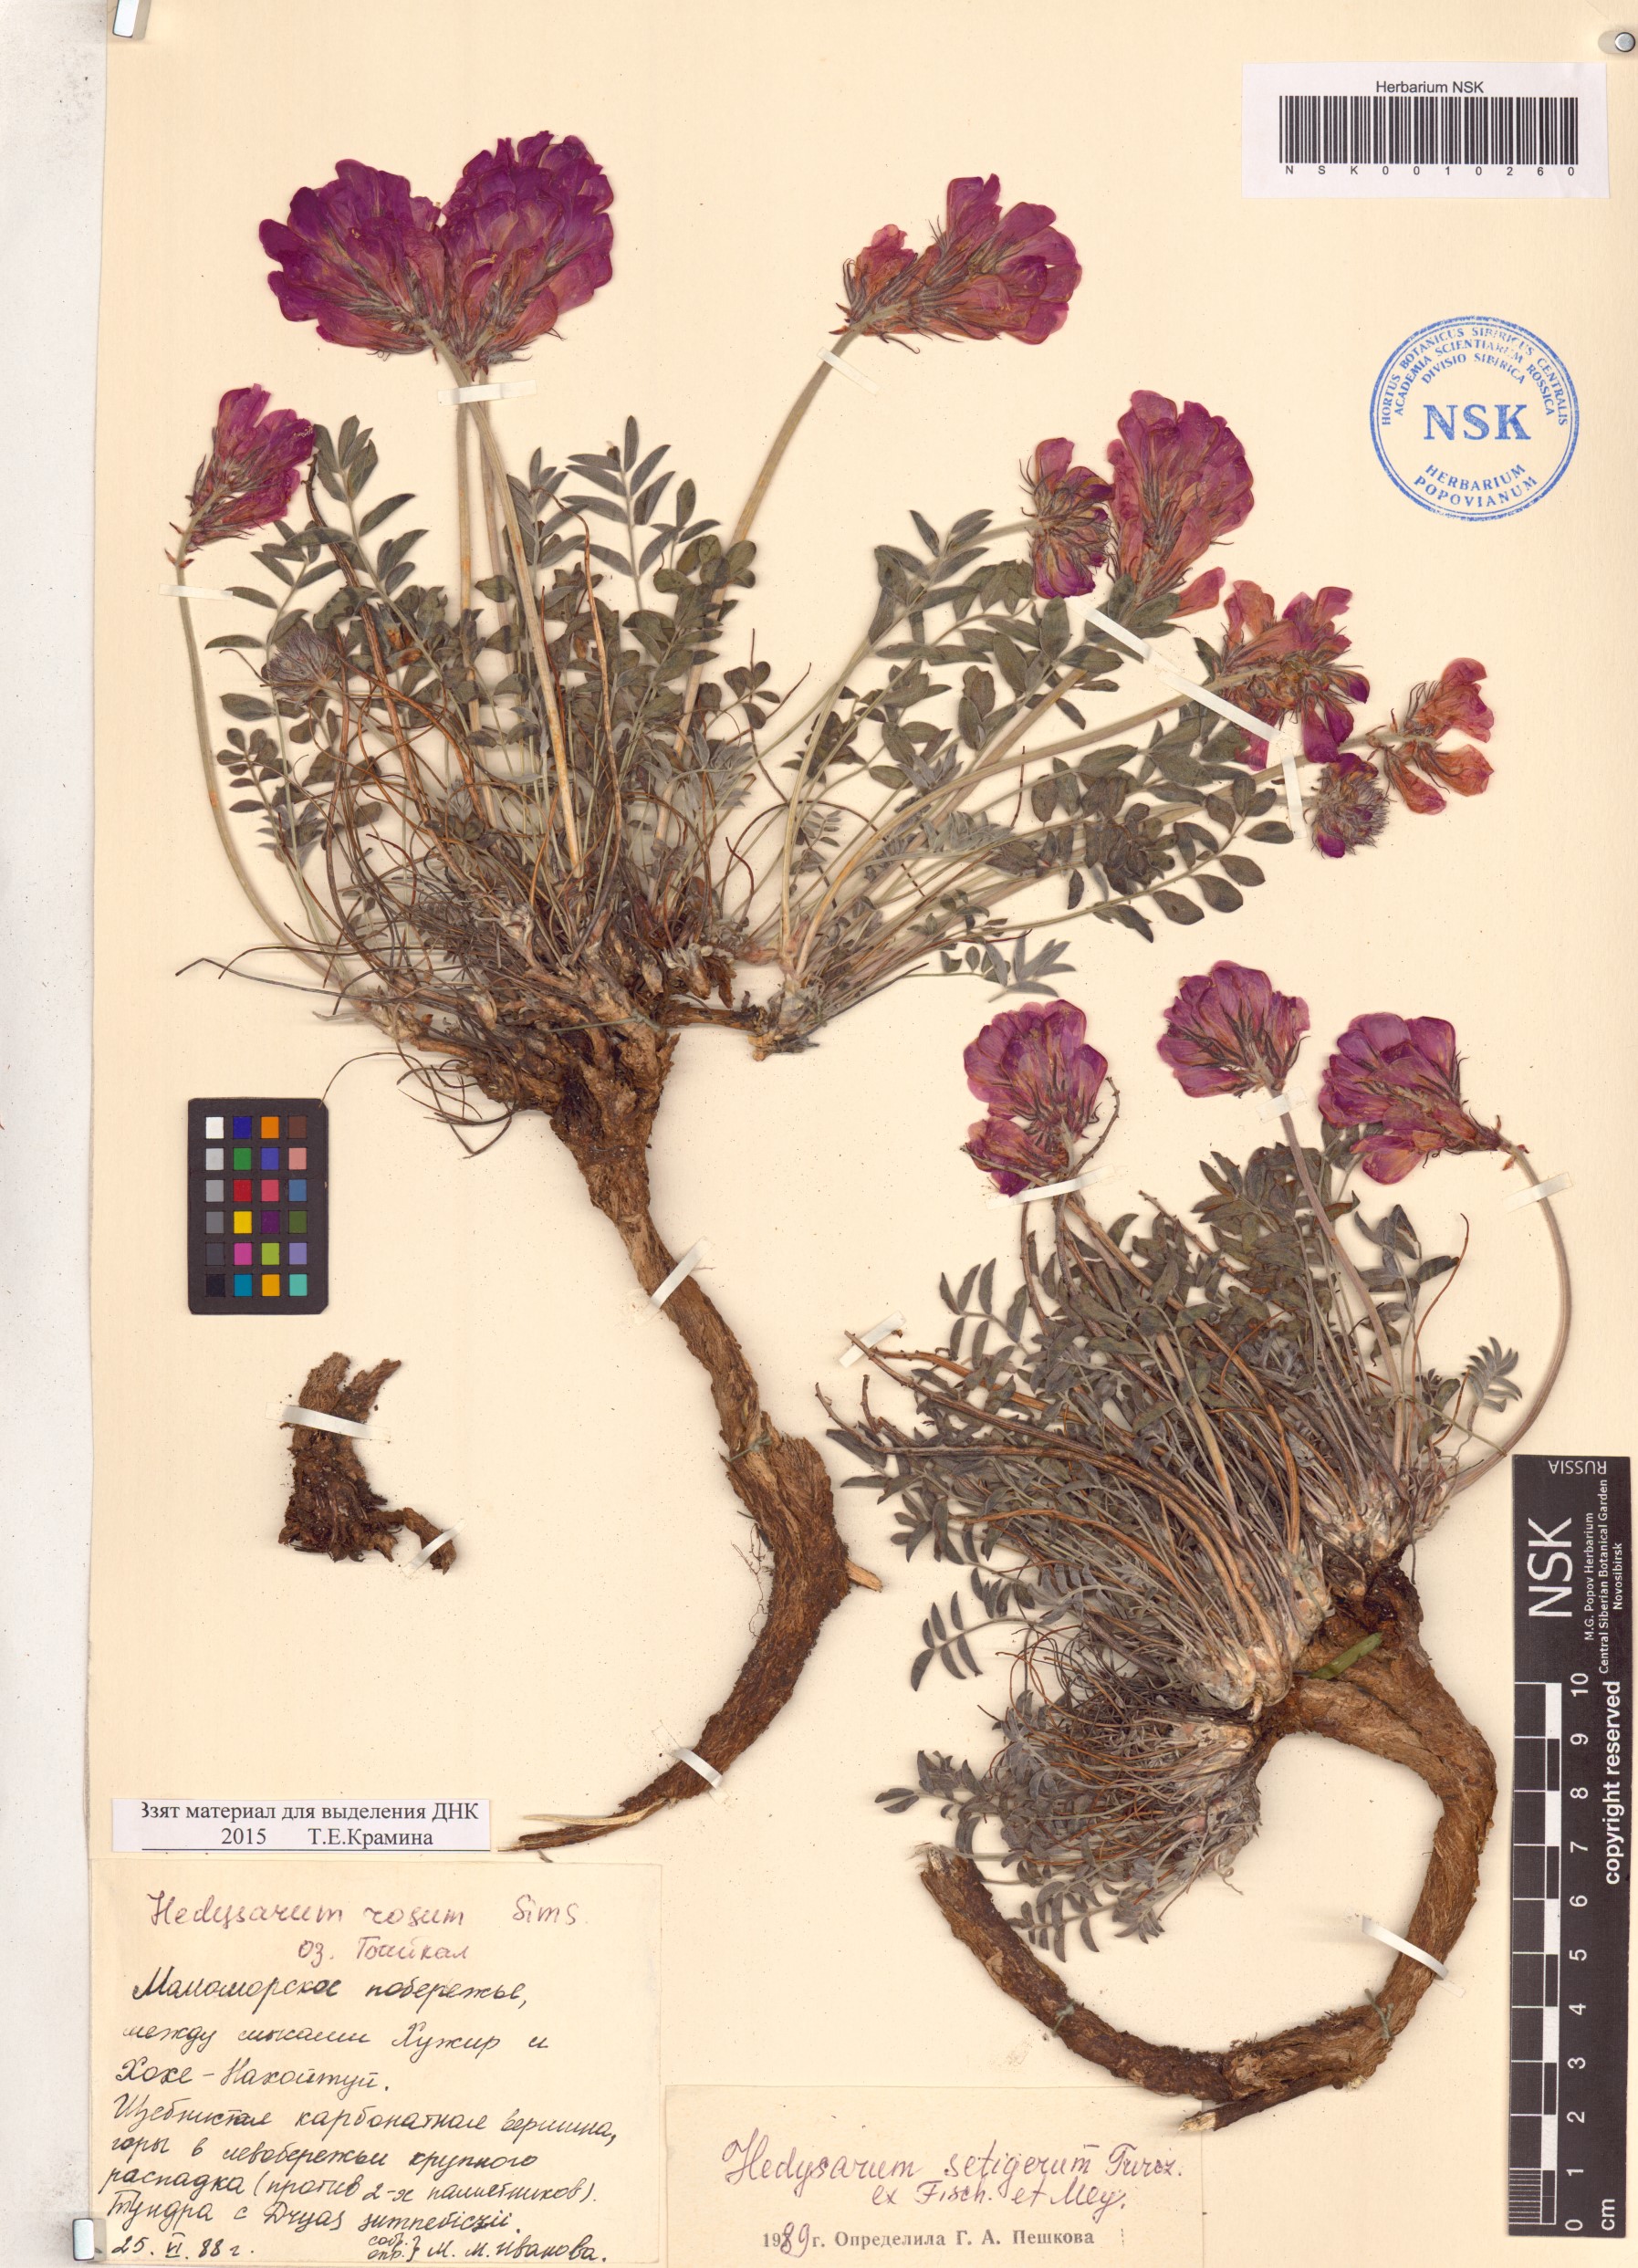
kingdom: Plantae
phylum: Tracheophyta
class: Magnoliopsida
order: Fabales
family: Fabaceae
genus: Hedysarum
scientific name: Hedysarum setigerum
